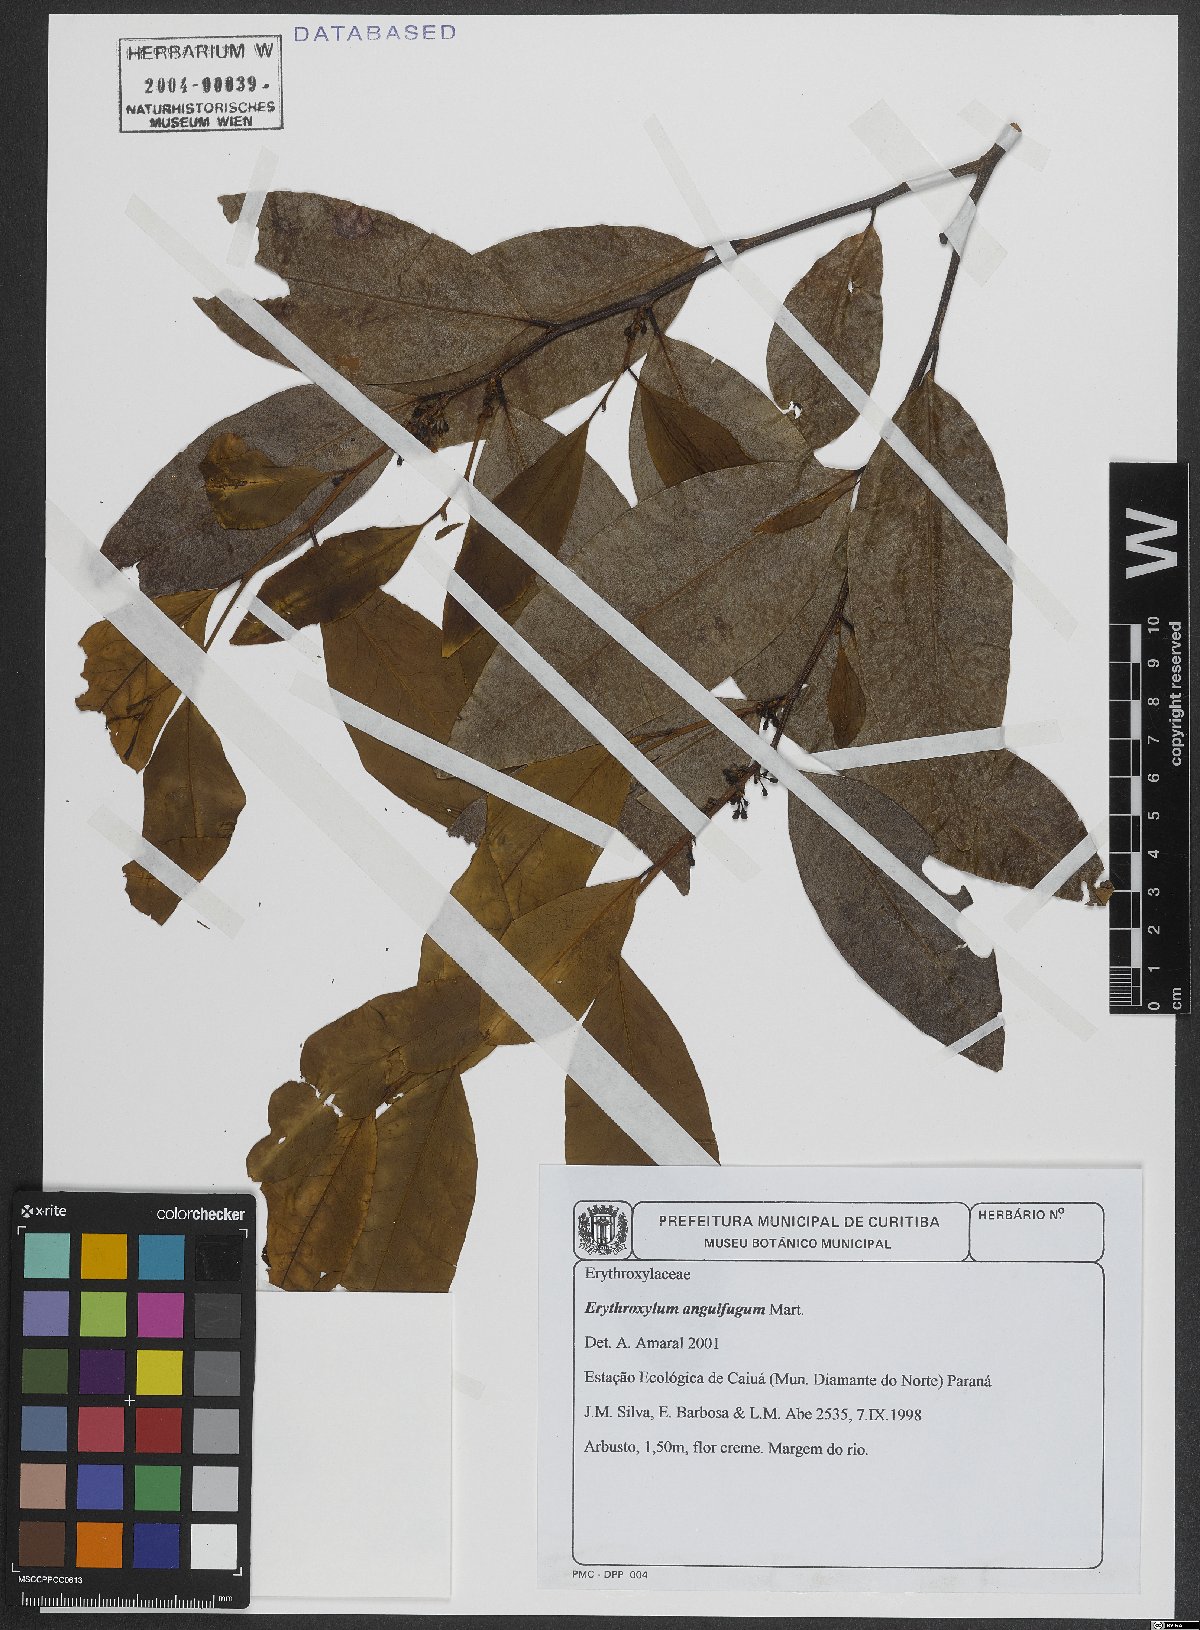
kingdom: Plantae
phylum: Tracheophyta
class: Magnoliopsida
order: Malpighiales
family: Erythroxylaceae
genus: Erythroxylum
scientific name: Erythroxylum anguifugum
